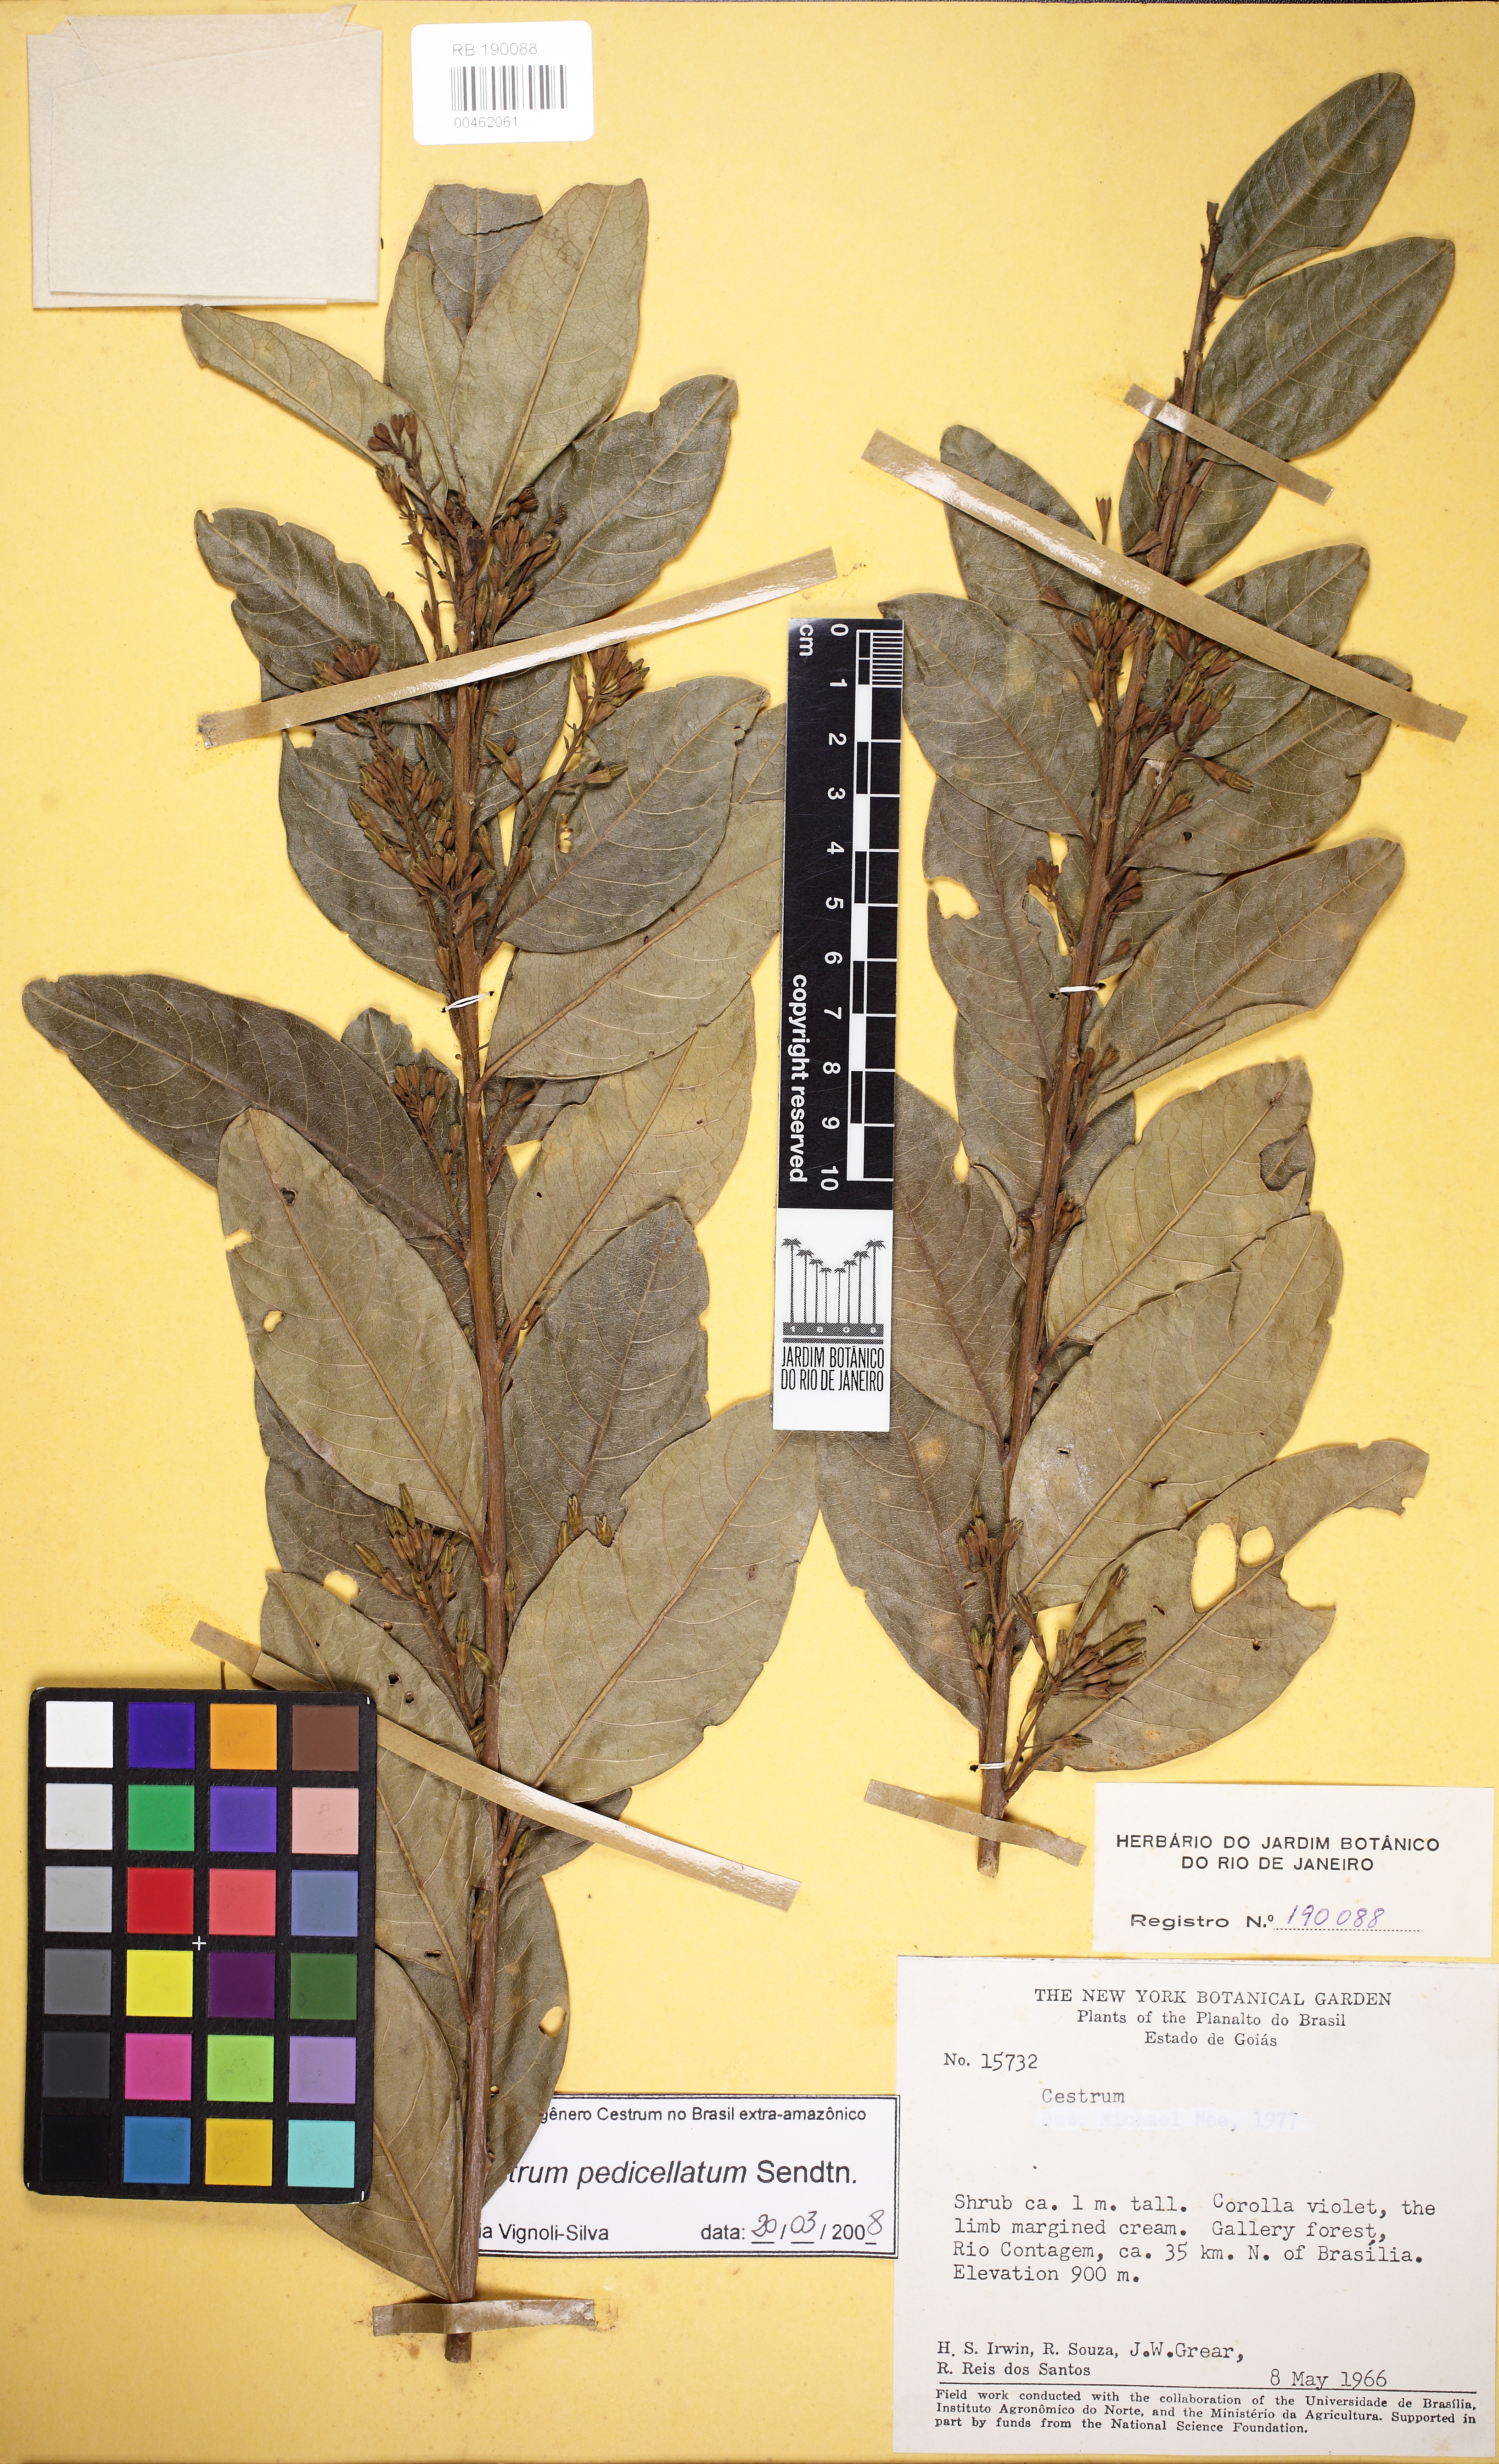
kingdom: Plantae
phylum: Tracheophyta
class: Magnoliopsida
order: Solanales
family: Solanaceae
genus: Cestrum
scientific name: Cestrum pedicellatum
